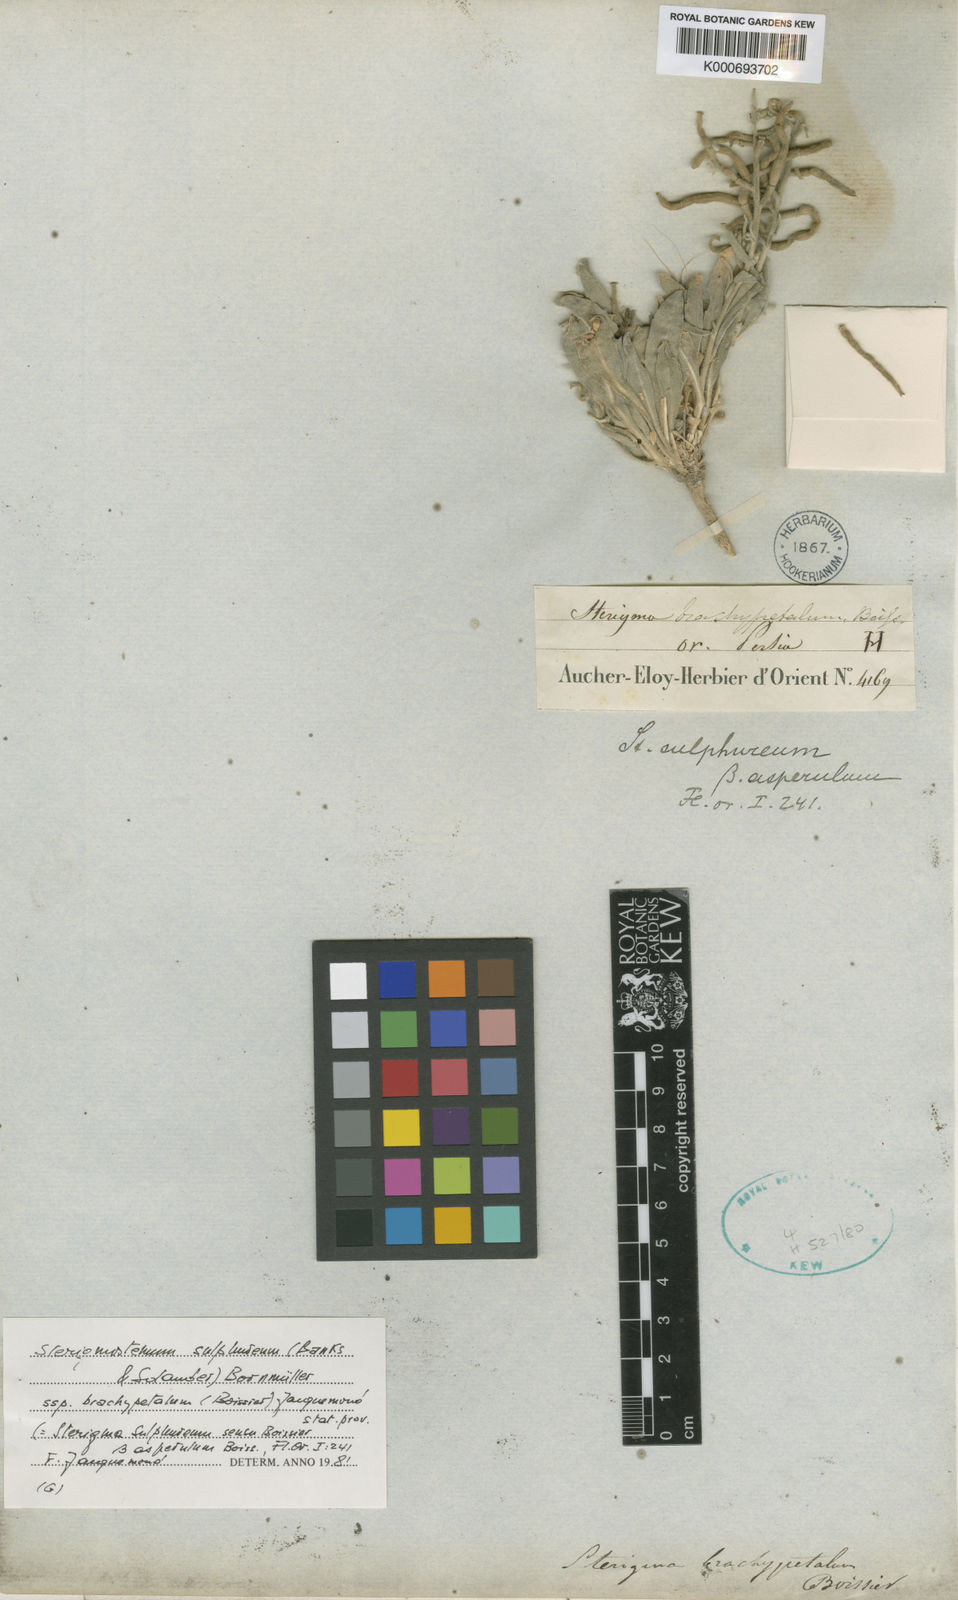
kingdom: Plantae
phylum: Tracheophyta
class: Magnoliopsida
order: Brassicales
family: Brassicaceae
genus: Sterigmostemum
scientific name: Sterigmostemum
